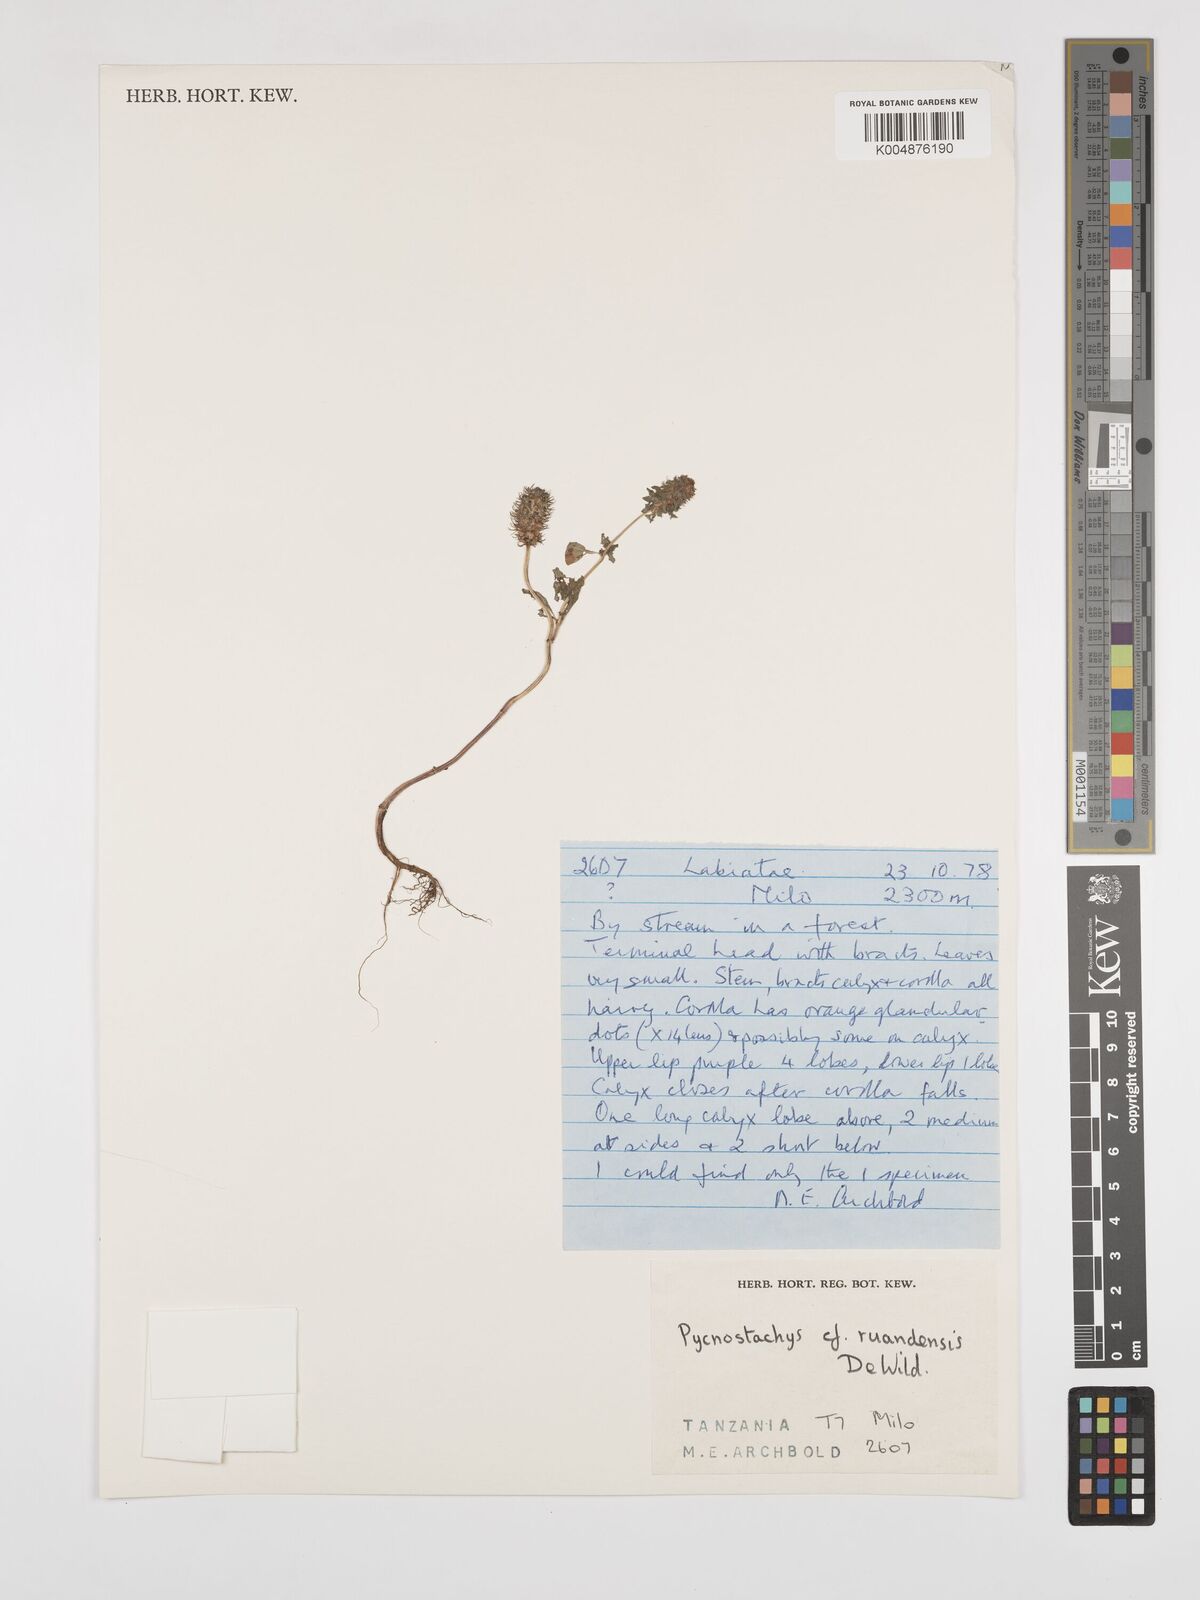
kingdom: Plantae
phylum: Tracheophyta
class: Magnoliopsida
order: Lamiales
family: Lamiaceae
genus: Coleus
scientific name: Coleus ruandensis
